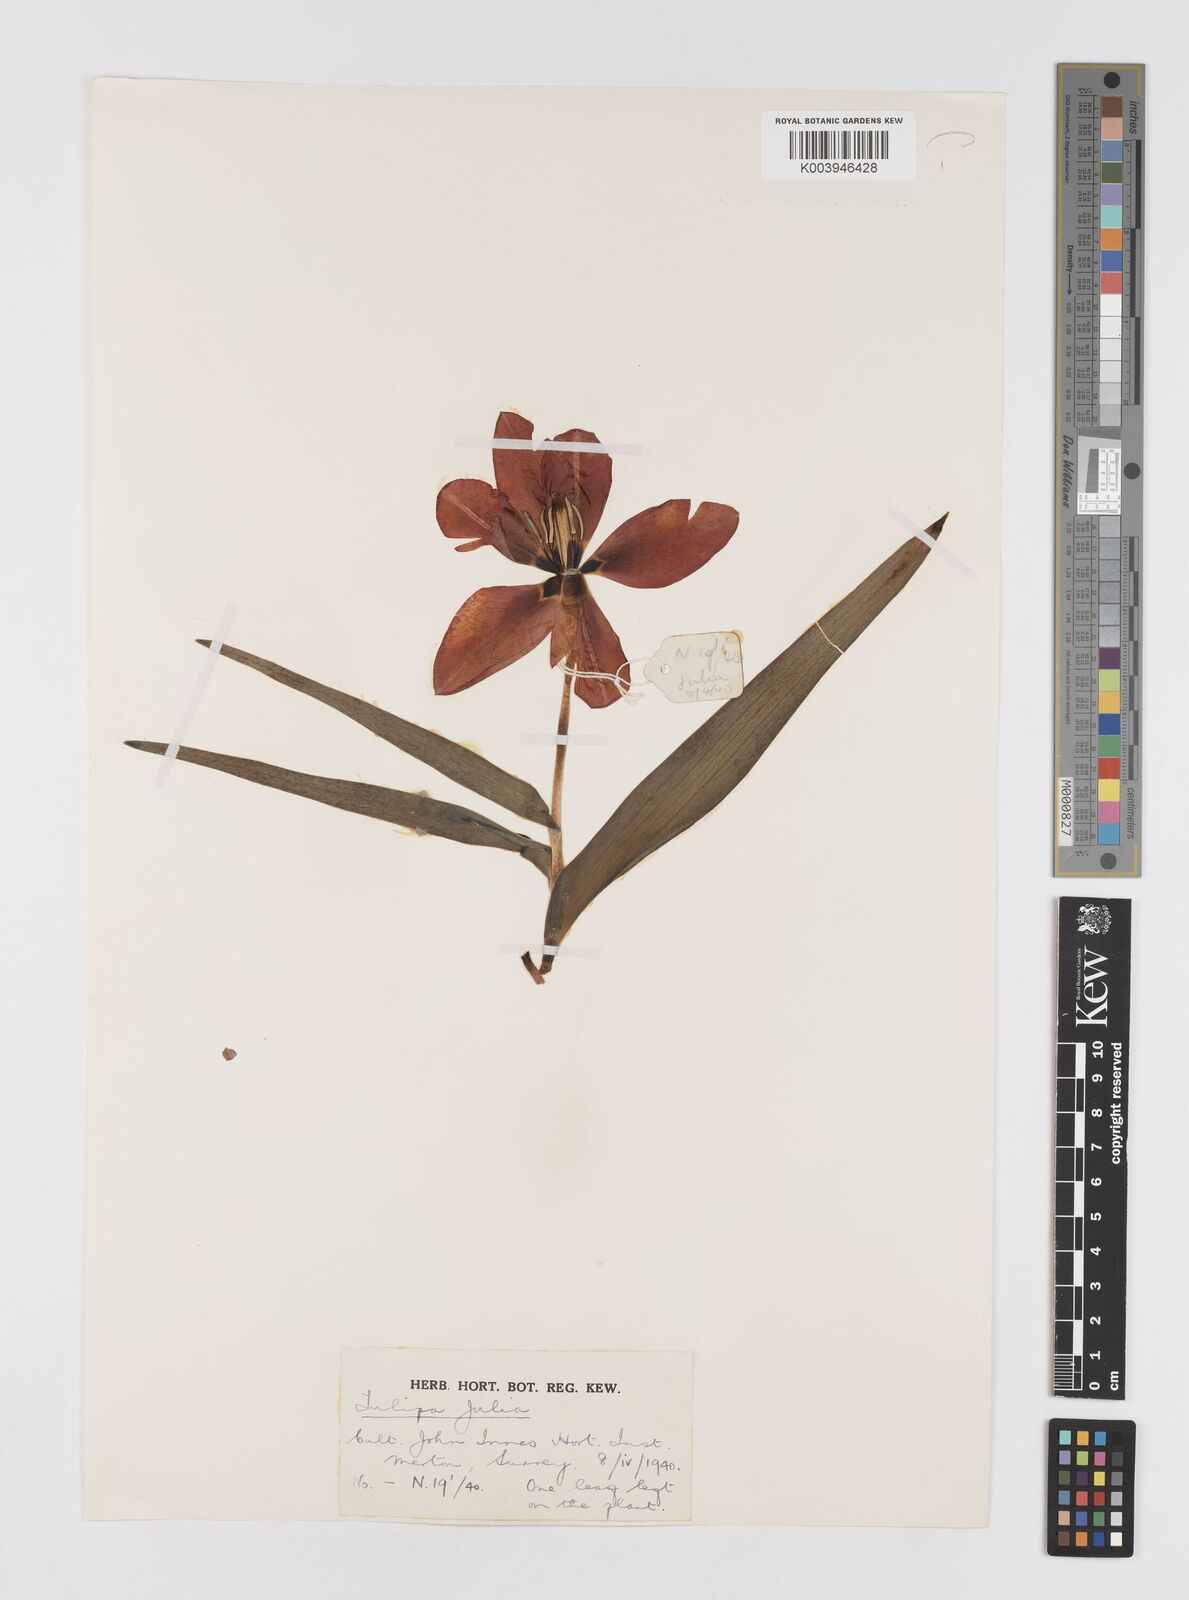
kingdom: Plantae
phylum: Tracheophyta
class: Liliopsida
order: Liliales
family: Liliaceae
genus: Tulipa
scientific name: Tulipa
